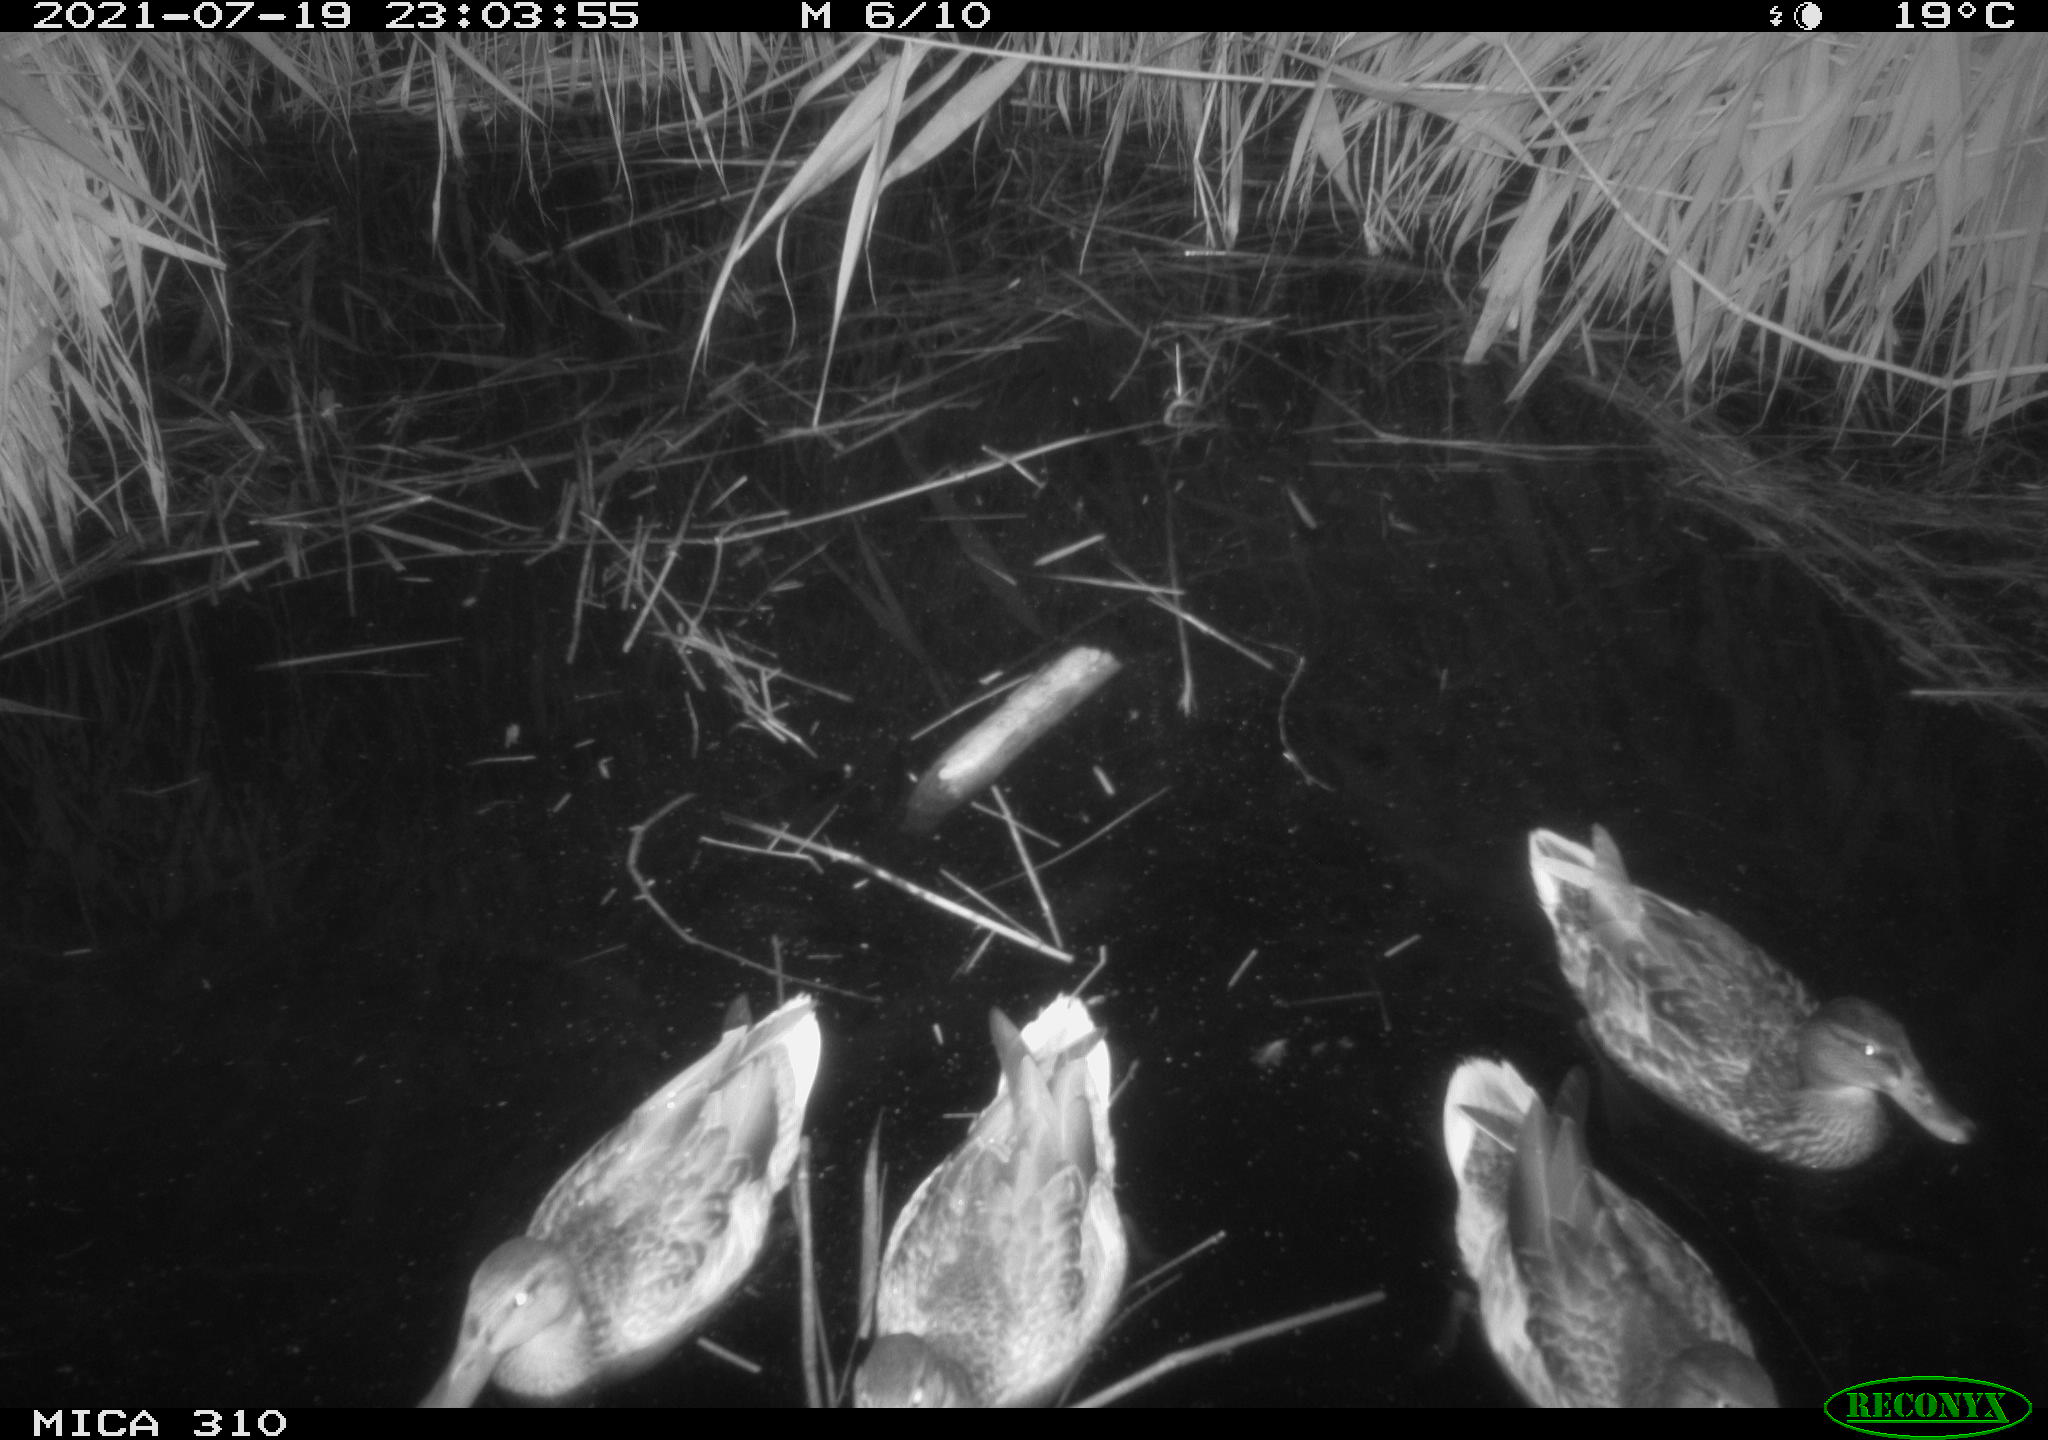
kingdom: Animalia
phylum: Chordata
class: Aves
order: Anseriformes
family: Anatidae
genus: Mareca
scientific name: Mareca strepera
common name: Gadwall
